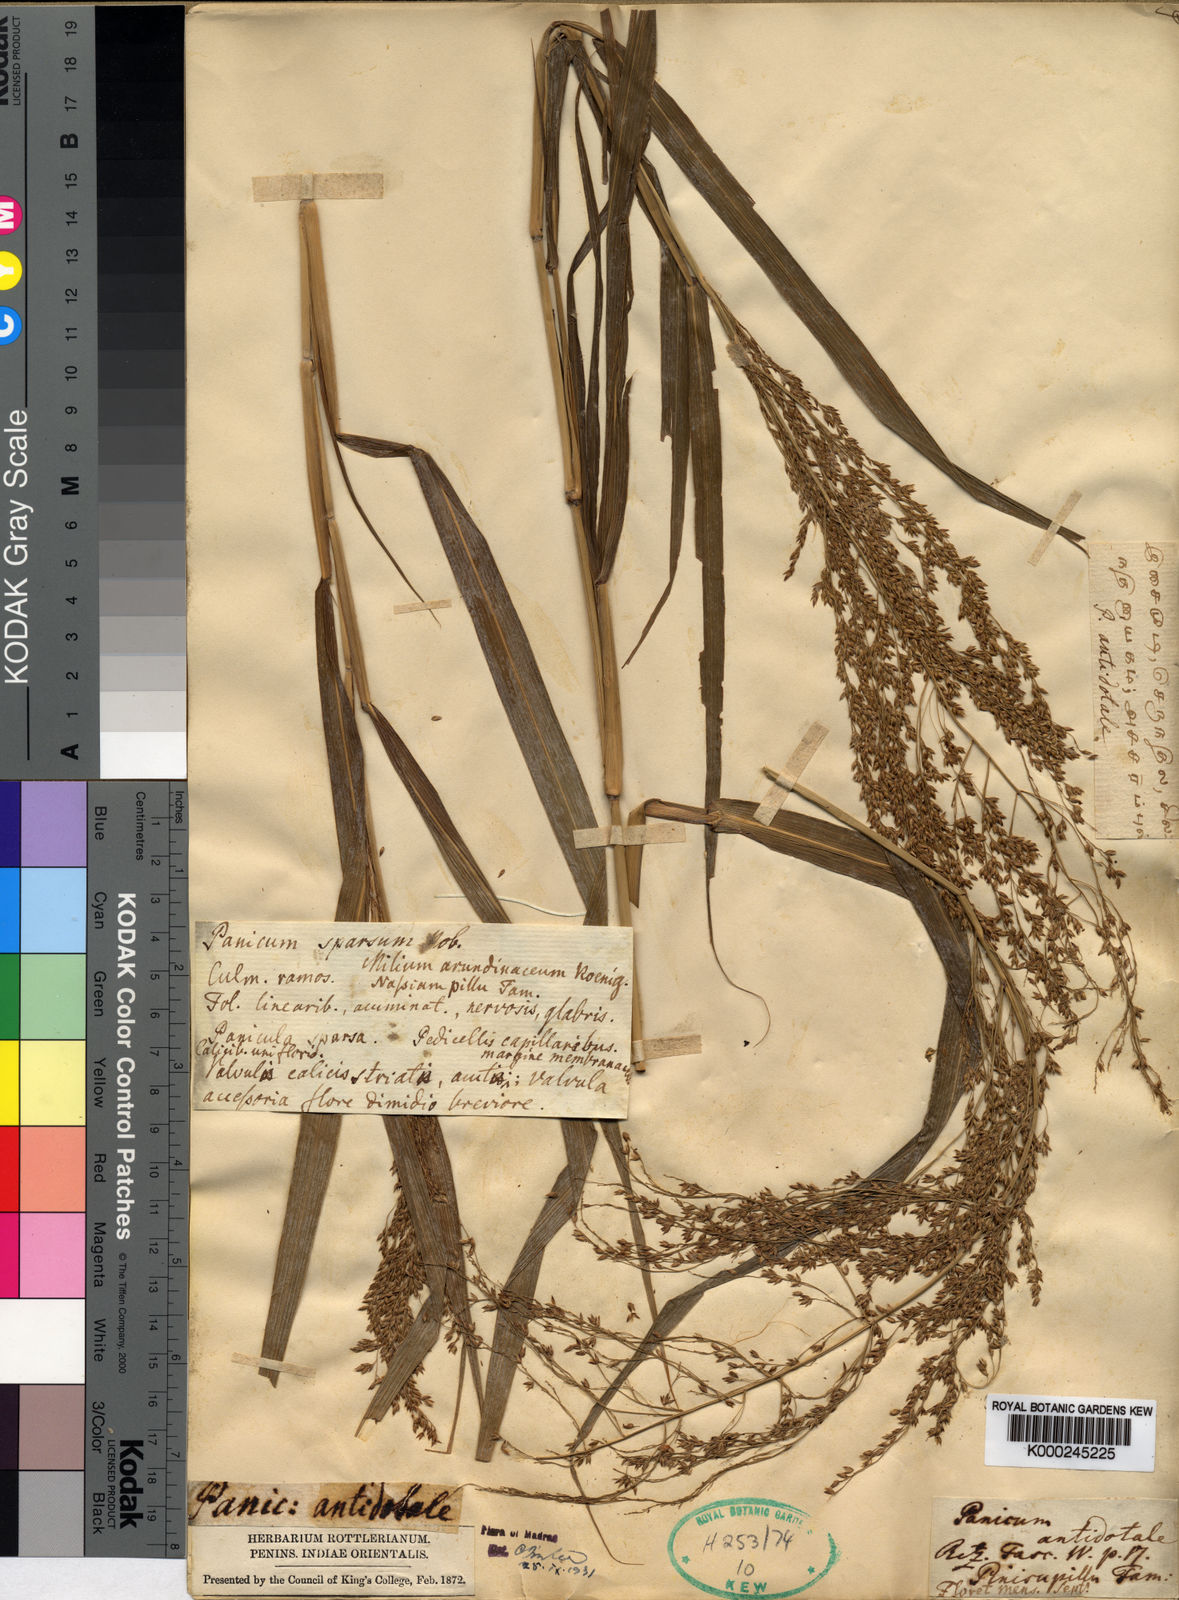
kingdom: Plantae
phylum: Tracheophyta
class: Liliopsida
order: Poales
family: Poaceae
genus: Panicum
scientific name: Panicum antidotale
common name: Blue panicum
